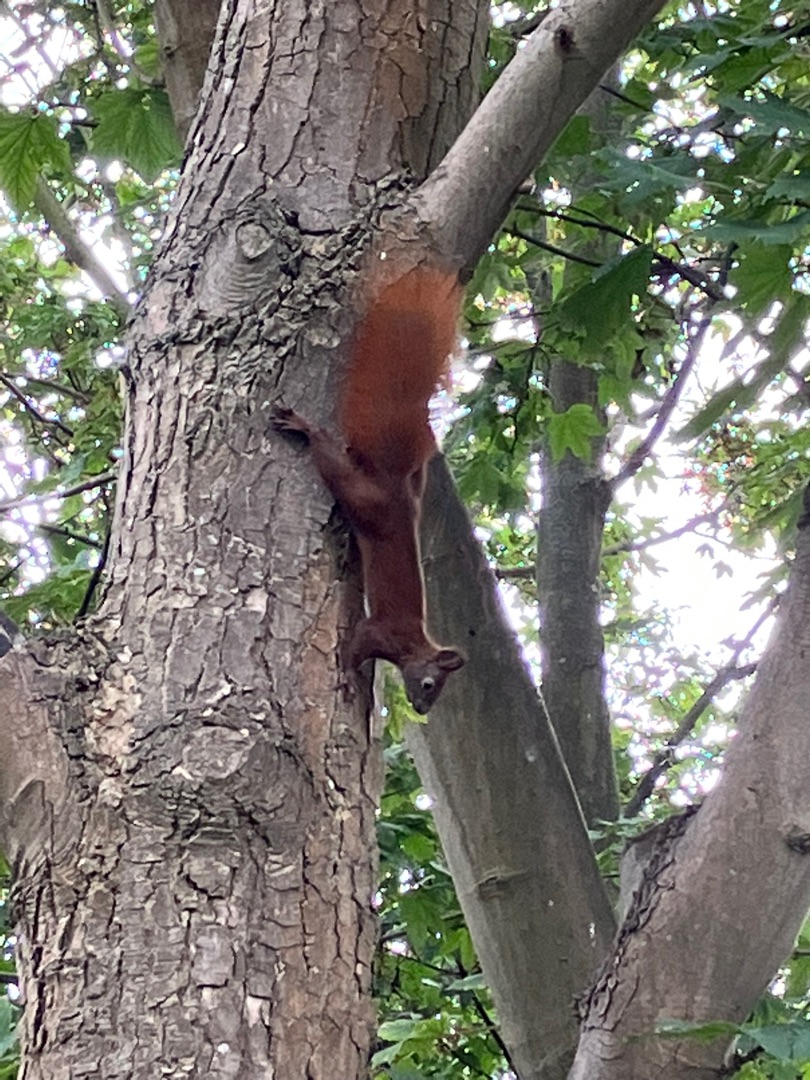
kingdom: Animalia
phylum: Chordata
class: Mammalia
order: Rodentia
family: Sciuridae
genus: Sciurus
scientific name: Sciurus vulgaris
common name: Egern
